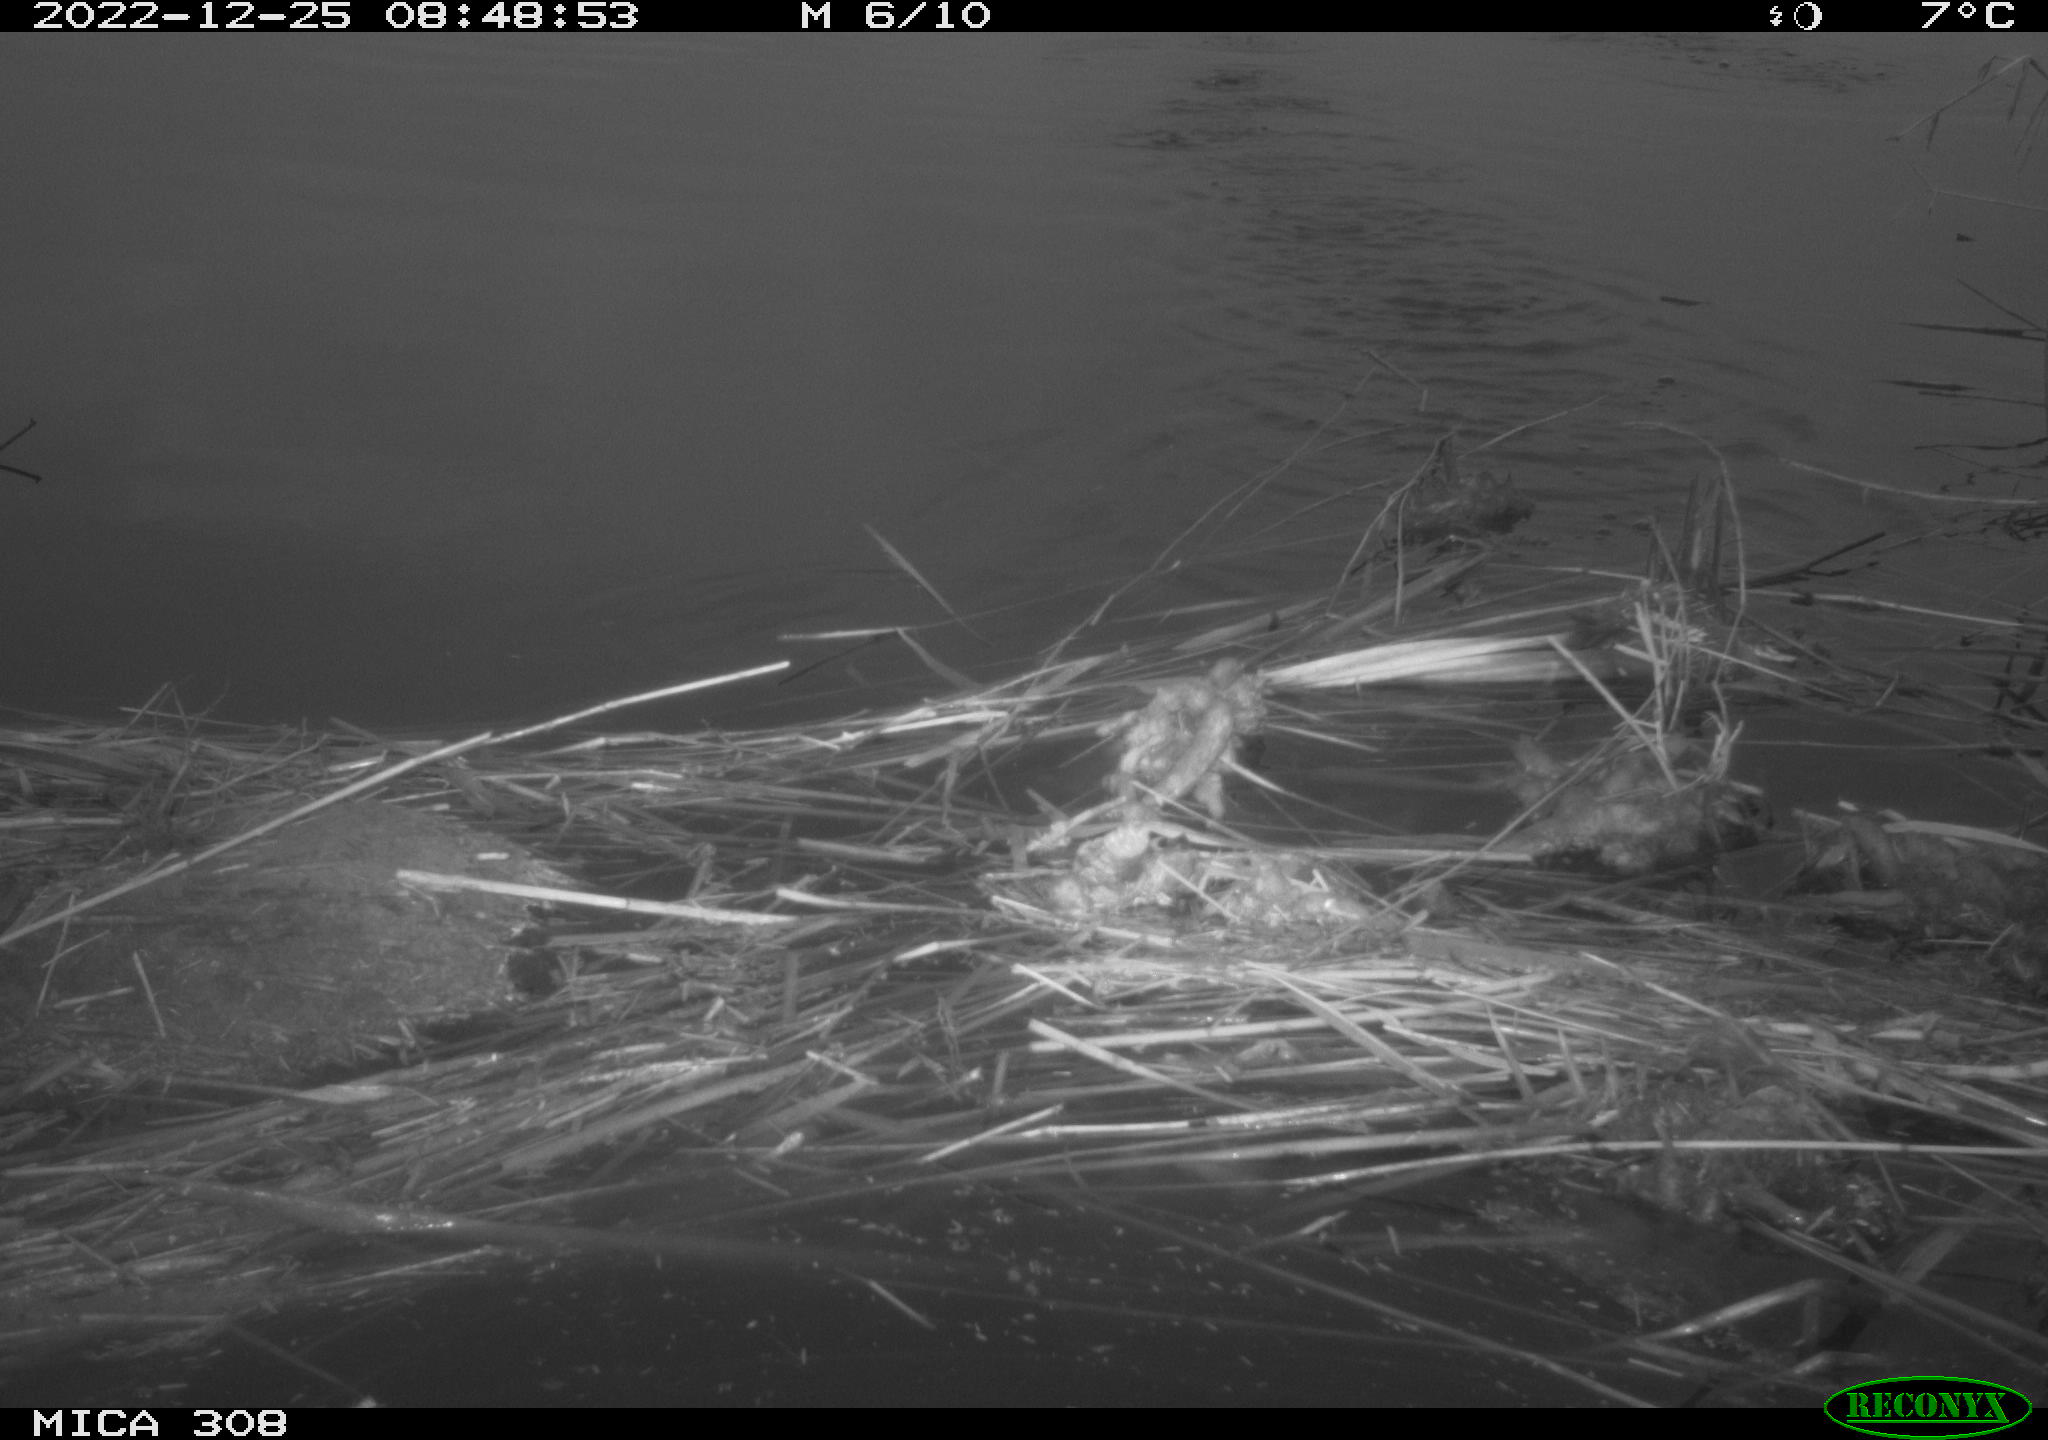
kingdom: Animalia
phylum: Chordata
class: Aves
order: Gruiformes
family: Rallidae
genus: Gallinula
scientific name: Gallinula chloropus
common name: Common moorhen
